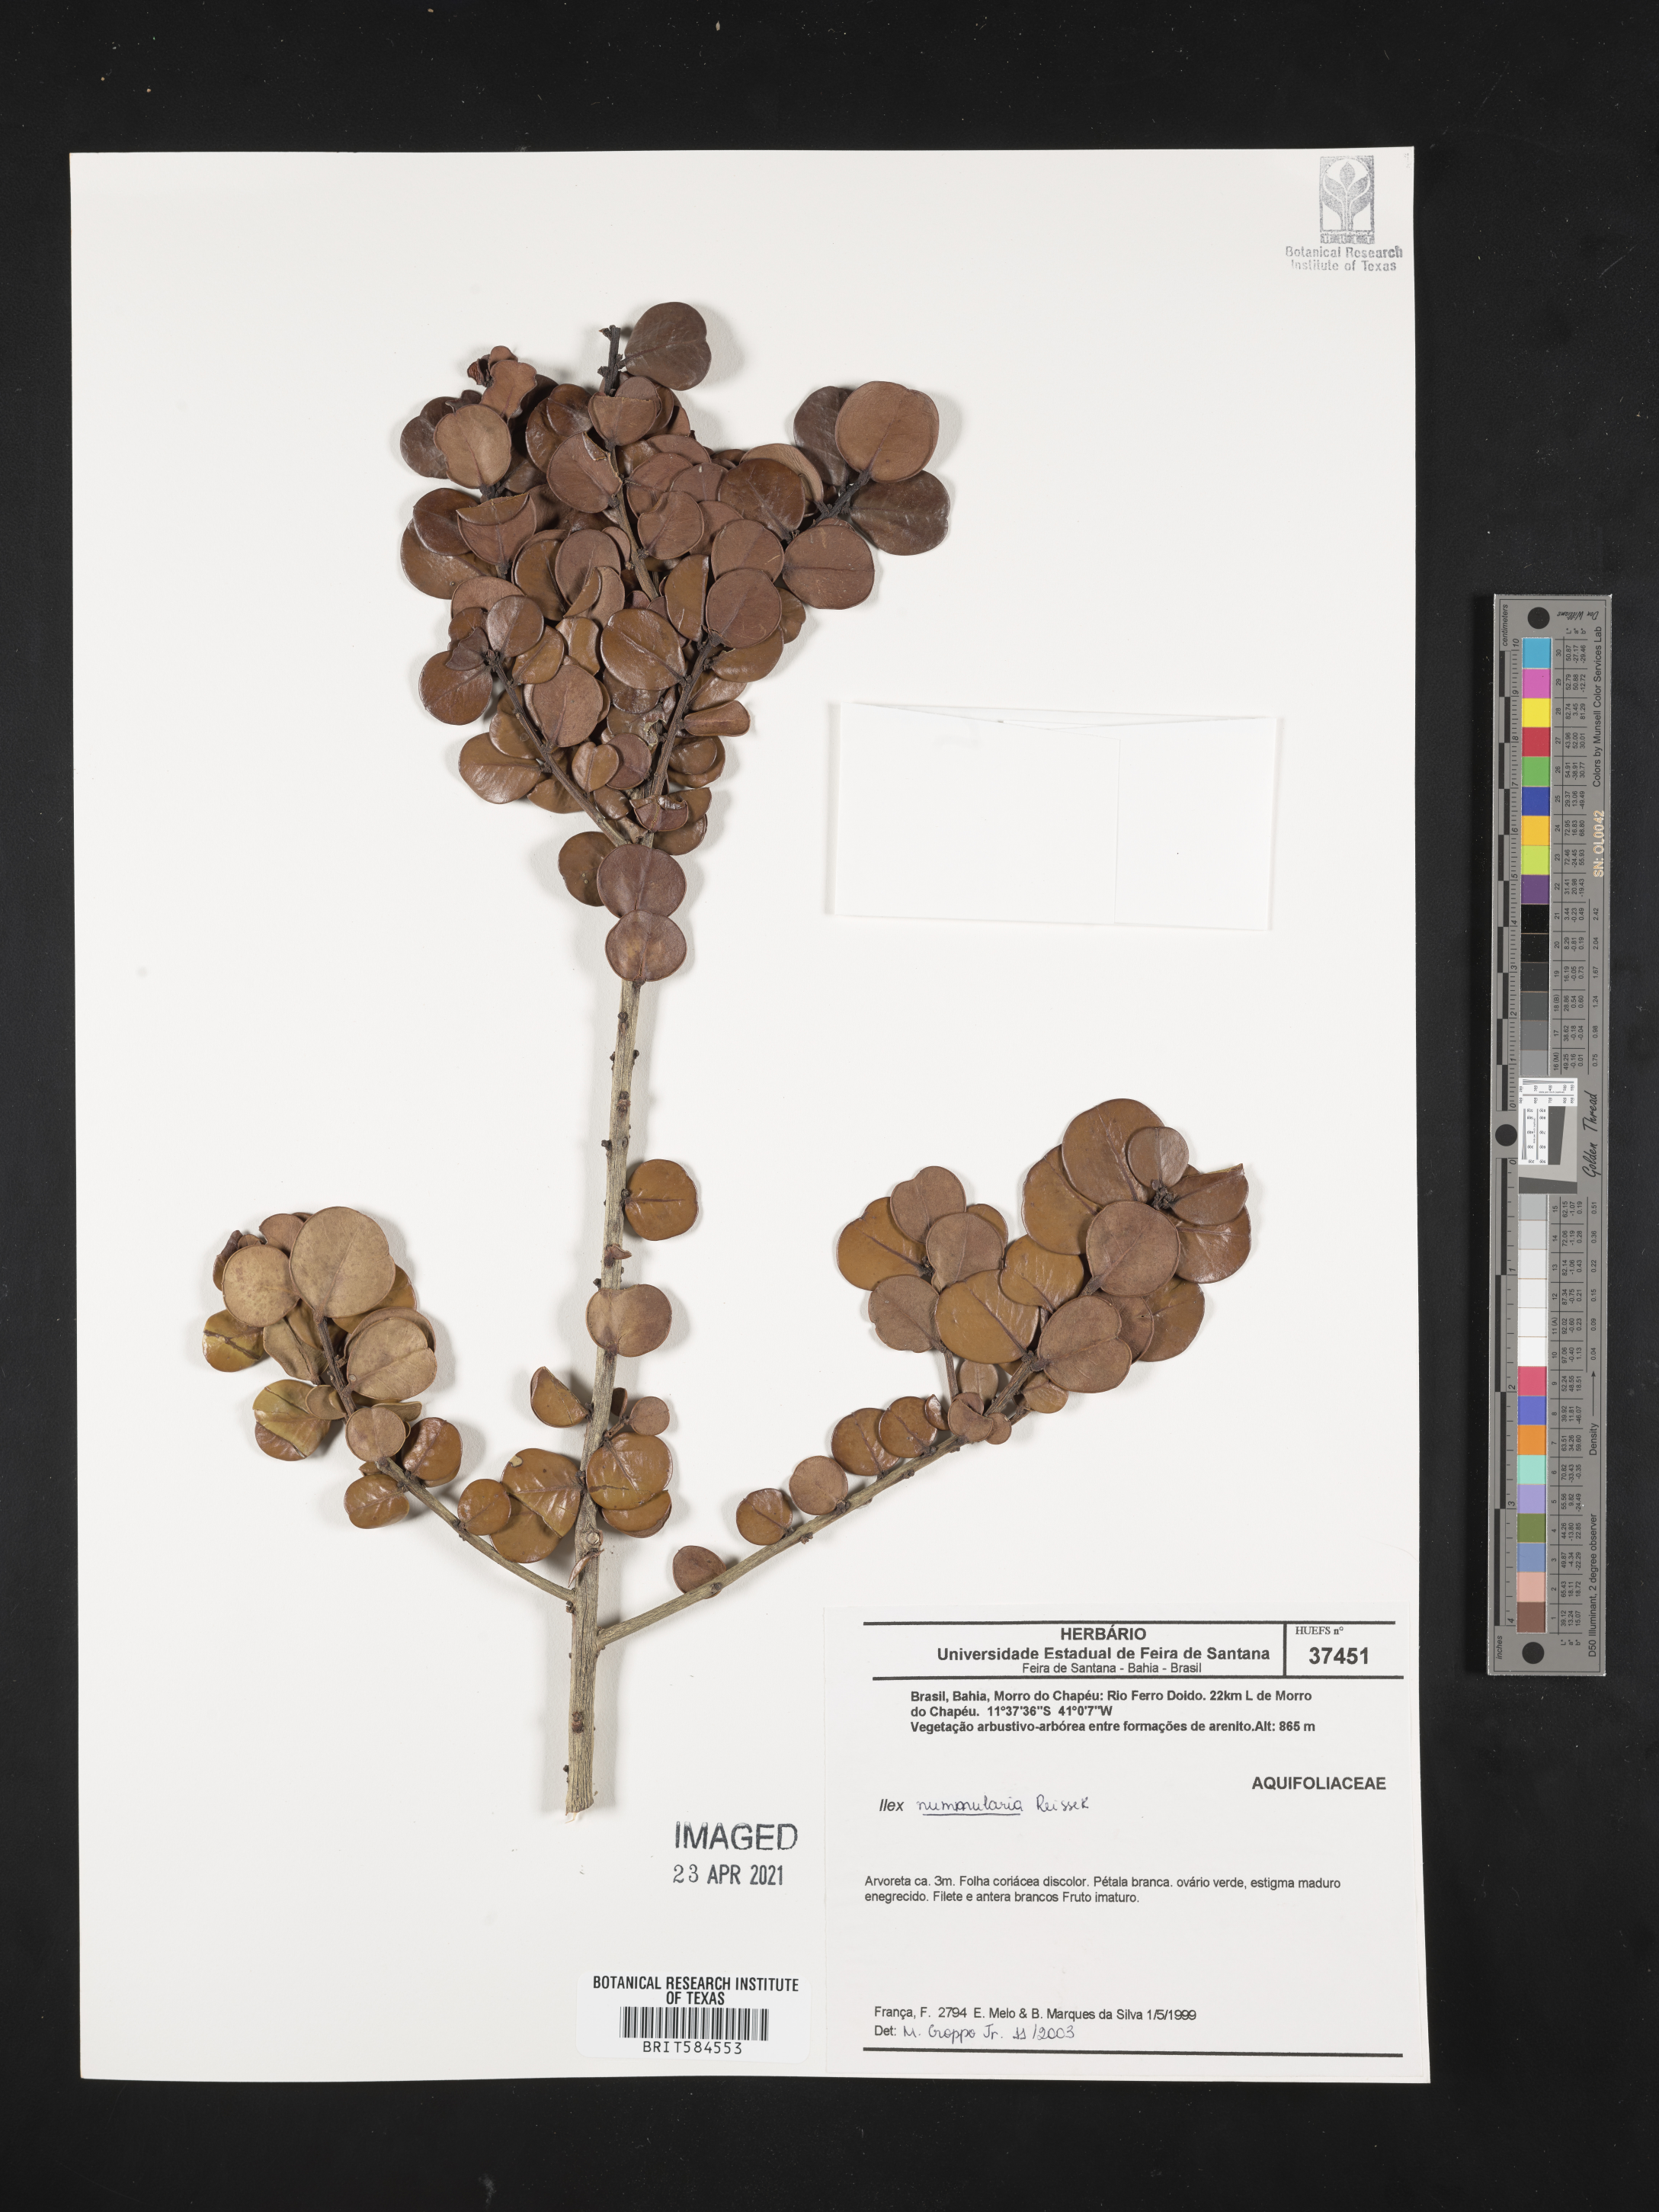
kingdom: Plantae
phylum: Tracheophyta
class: Magnoliopsida
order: Aquifoliales
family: Aquifoliaceae
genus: Ilex
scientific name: Ilex nummularia
